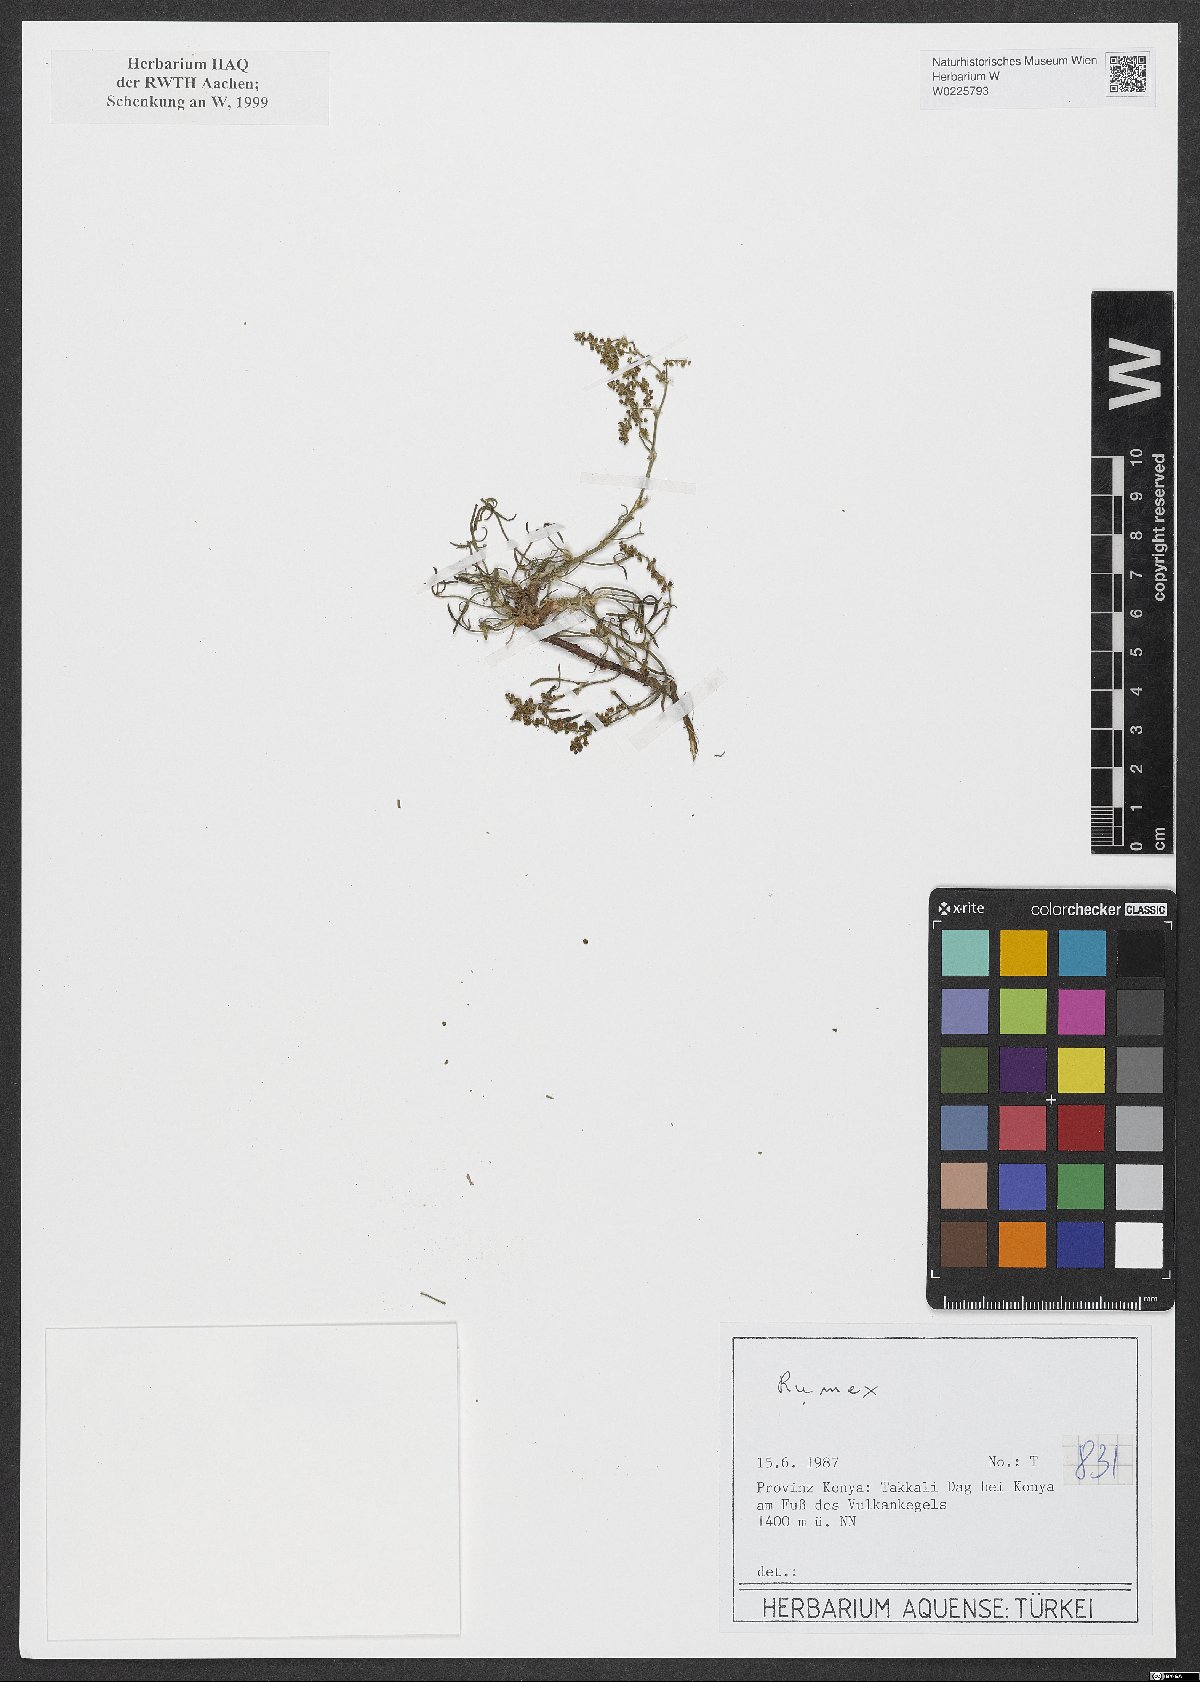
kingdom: Plantae
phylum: Tracheophyta
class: Magnoliopsida
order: Caryophyllales
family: Polygonaceae
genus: Rumex
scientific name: Rumex
